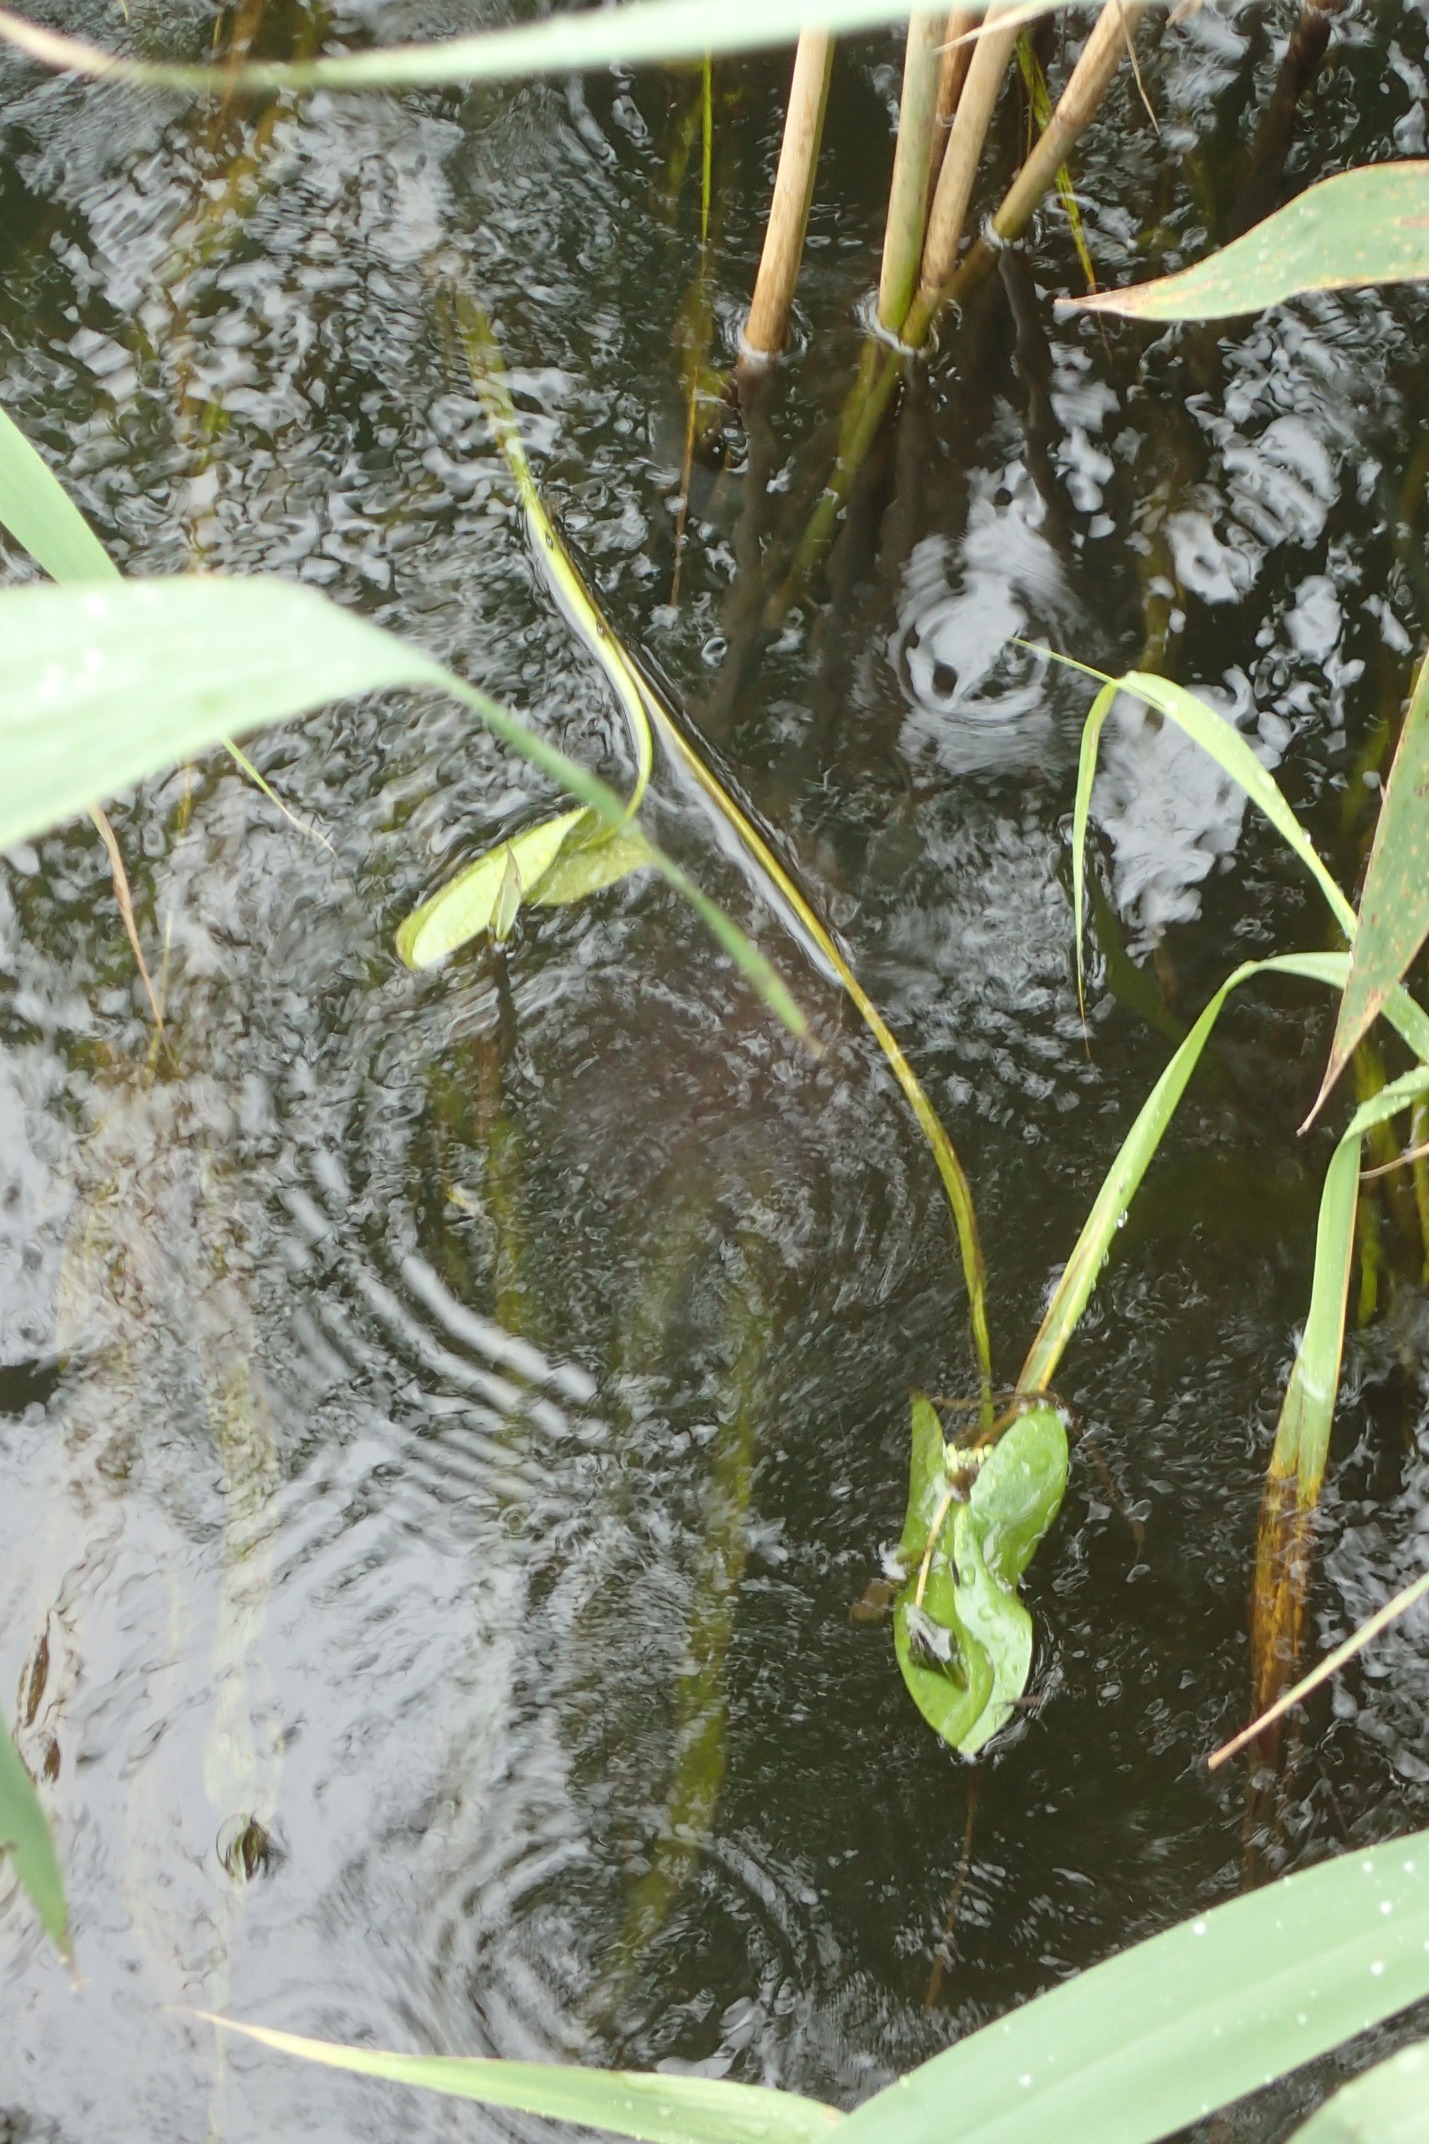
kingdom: Plantae
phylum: Tracheophyta
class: Liliopsida
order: Alismatales
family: Alismataceae
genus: Sagittaria
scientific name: Sagittaria sagittifolia
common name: Pilblad
